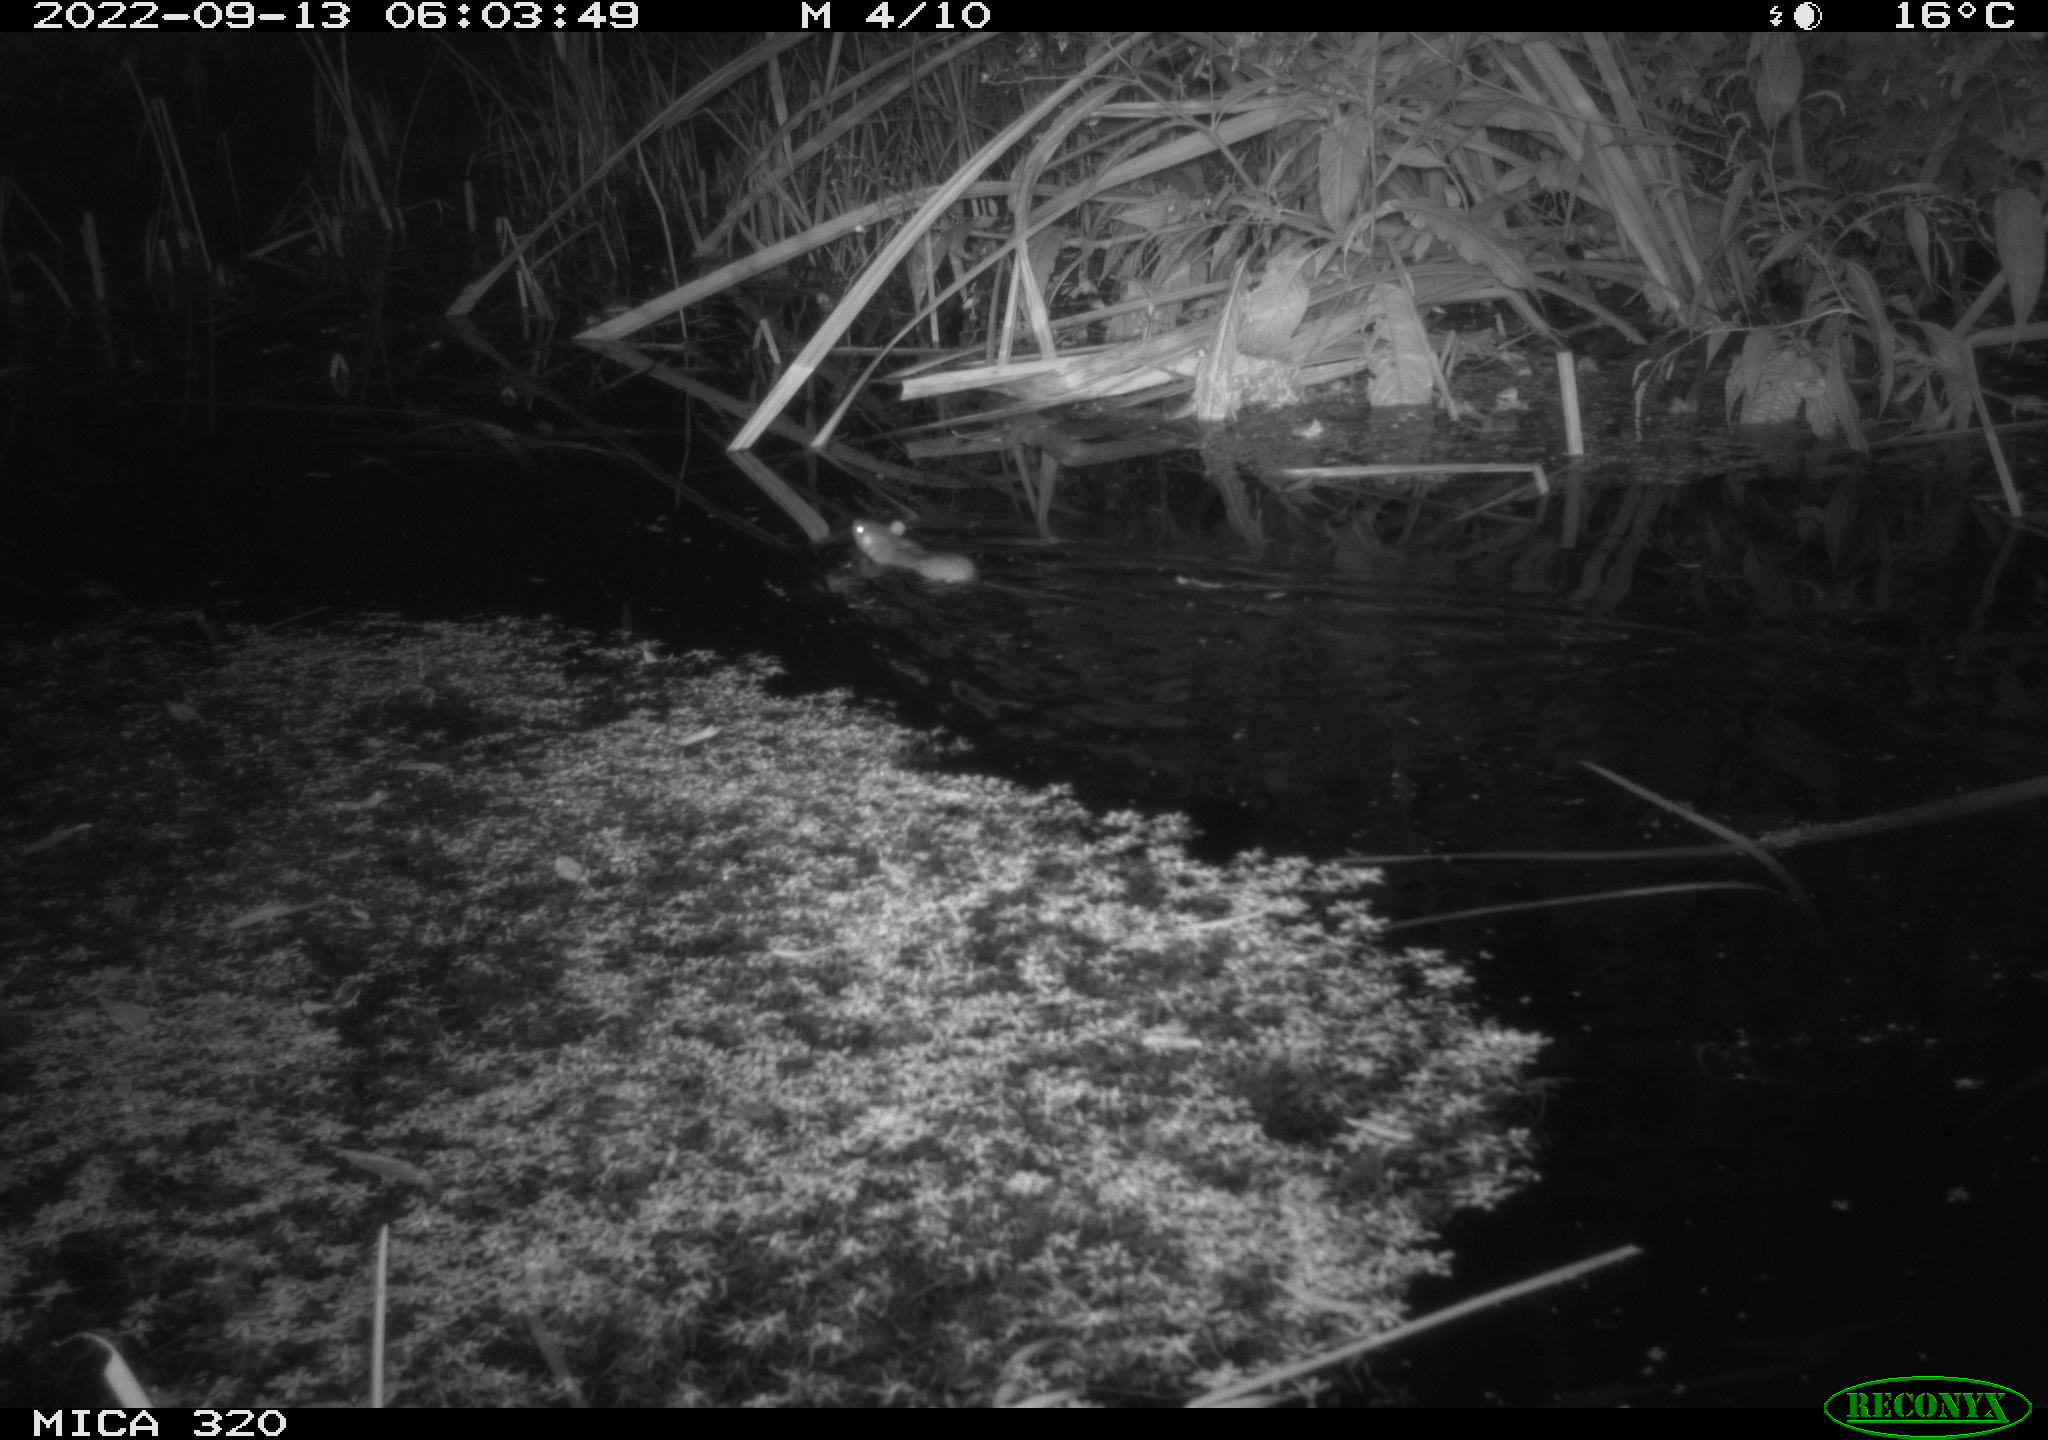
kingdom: Animalia
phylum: Chordata
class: Mammalia
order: Rodentia
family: Muridae
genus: Rattus
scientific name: Rattus norvegicus
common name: Brown rat
